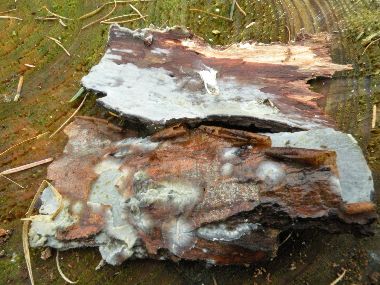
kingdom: Fungi
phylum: Basidiomycota
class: Agaricomycetes
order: Agaricales
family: Radulomycetaceae
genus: Radulomyces
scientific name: Radulomyces confluens
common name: glat naftalinskind
